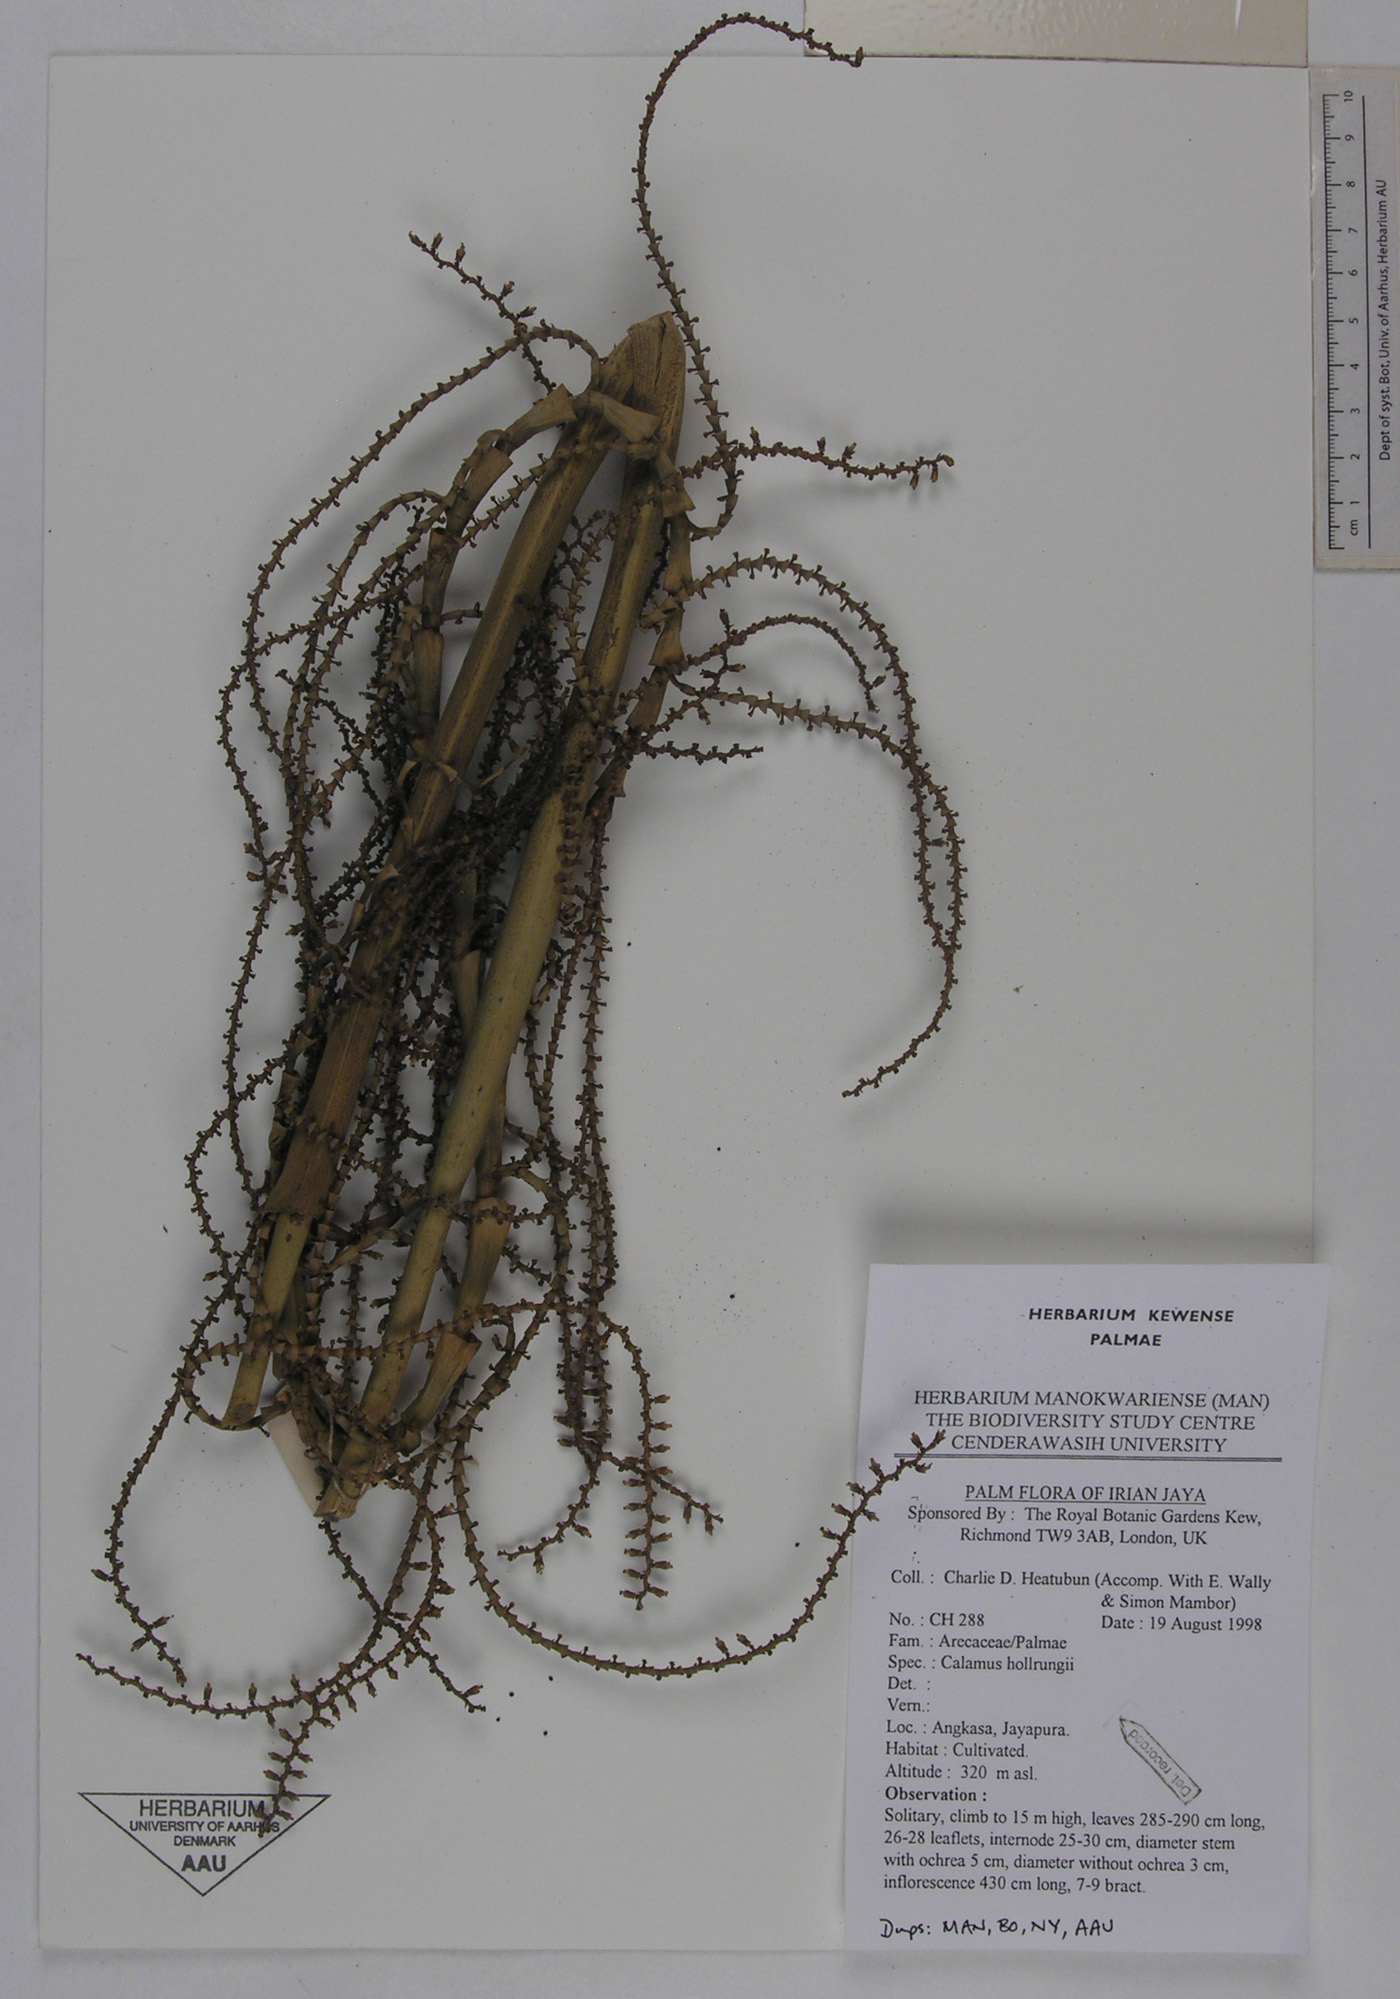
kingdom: Plantae
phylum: Tracheophyta
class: Liliopsida
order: Arecales
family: Arecaceae
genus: Calamus
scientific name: Calamus aruensis
